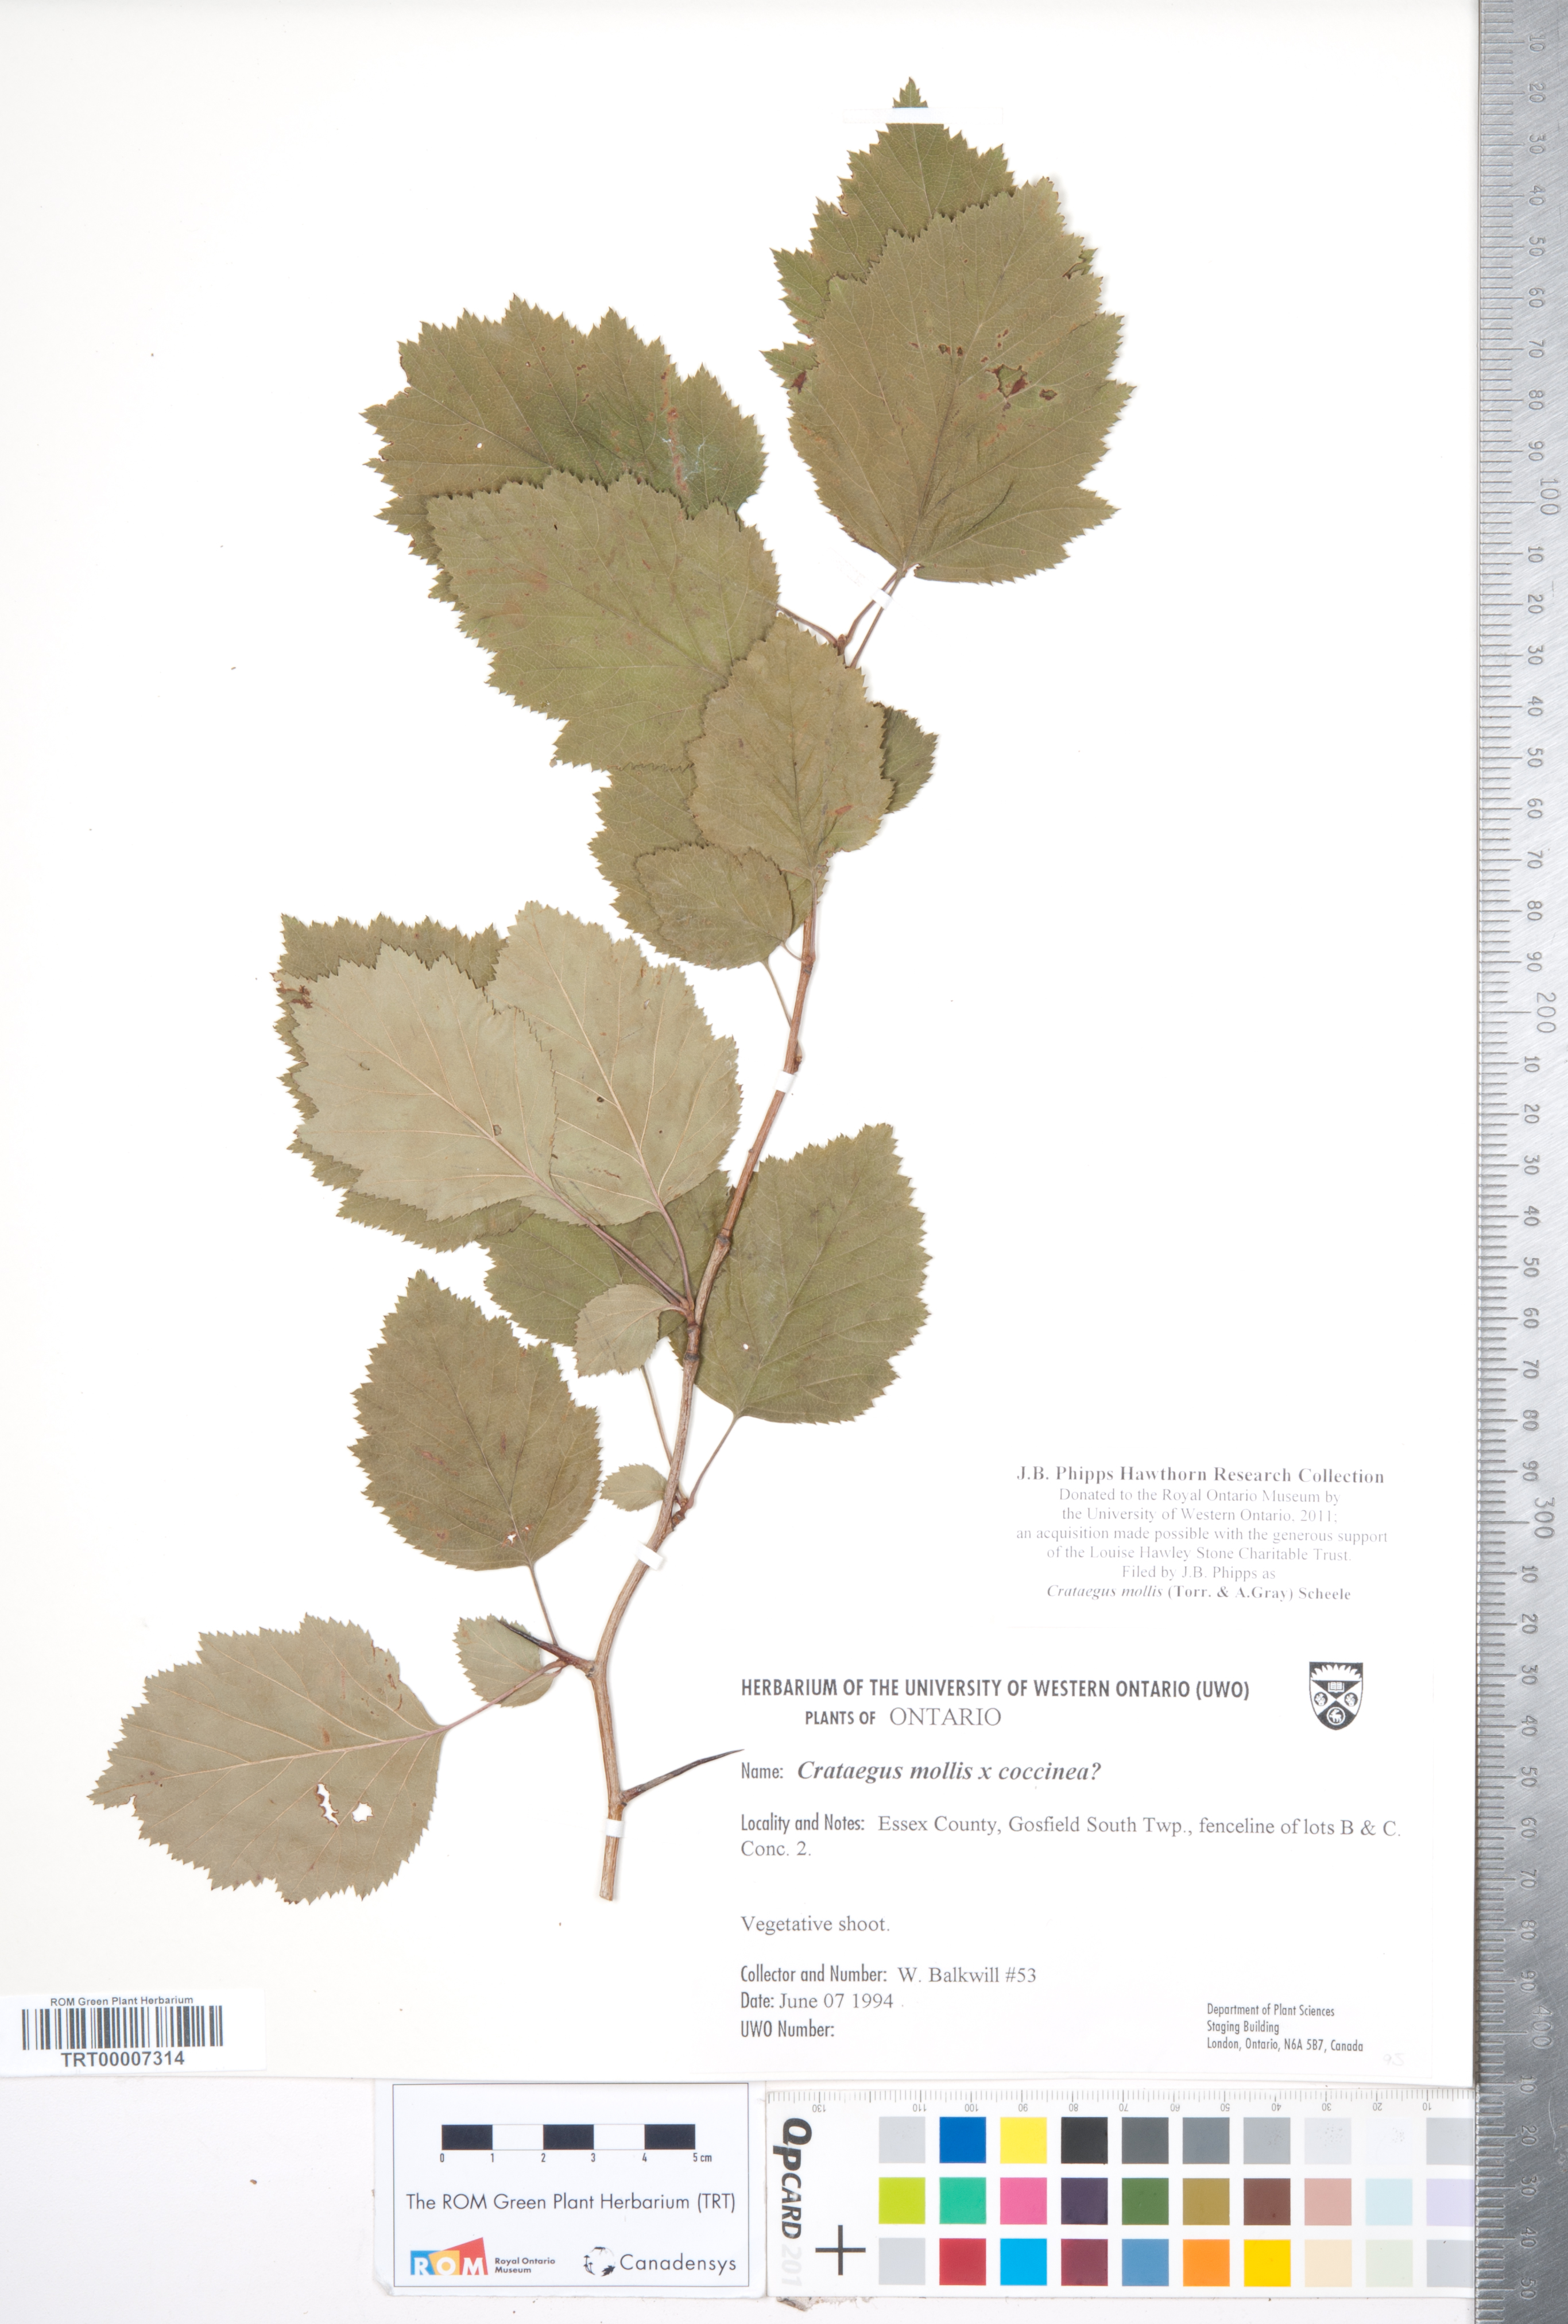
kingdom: Plantae
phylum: Tracheophyta
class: Magnoliopsida
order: Rosales
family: Rosaceae
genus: Crataegus
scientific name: Crataegus mollis
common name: Downy hawthorn
